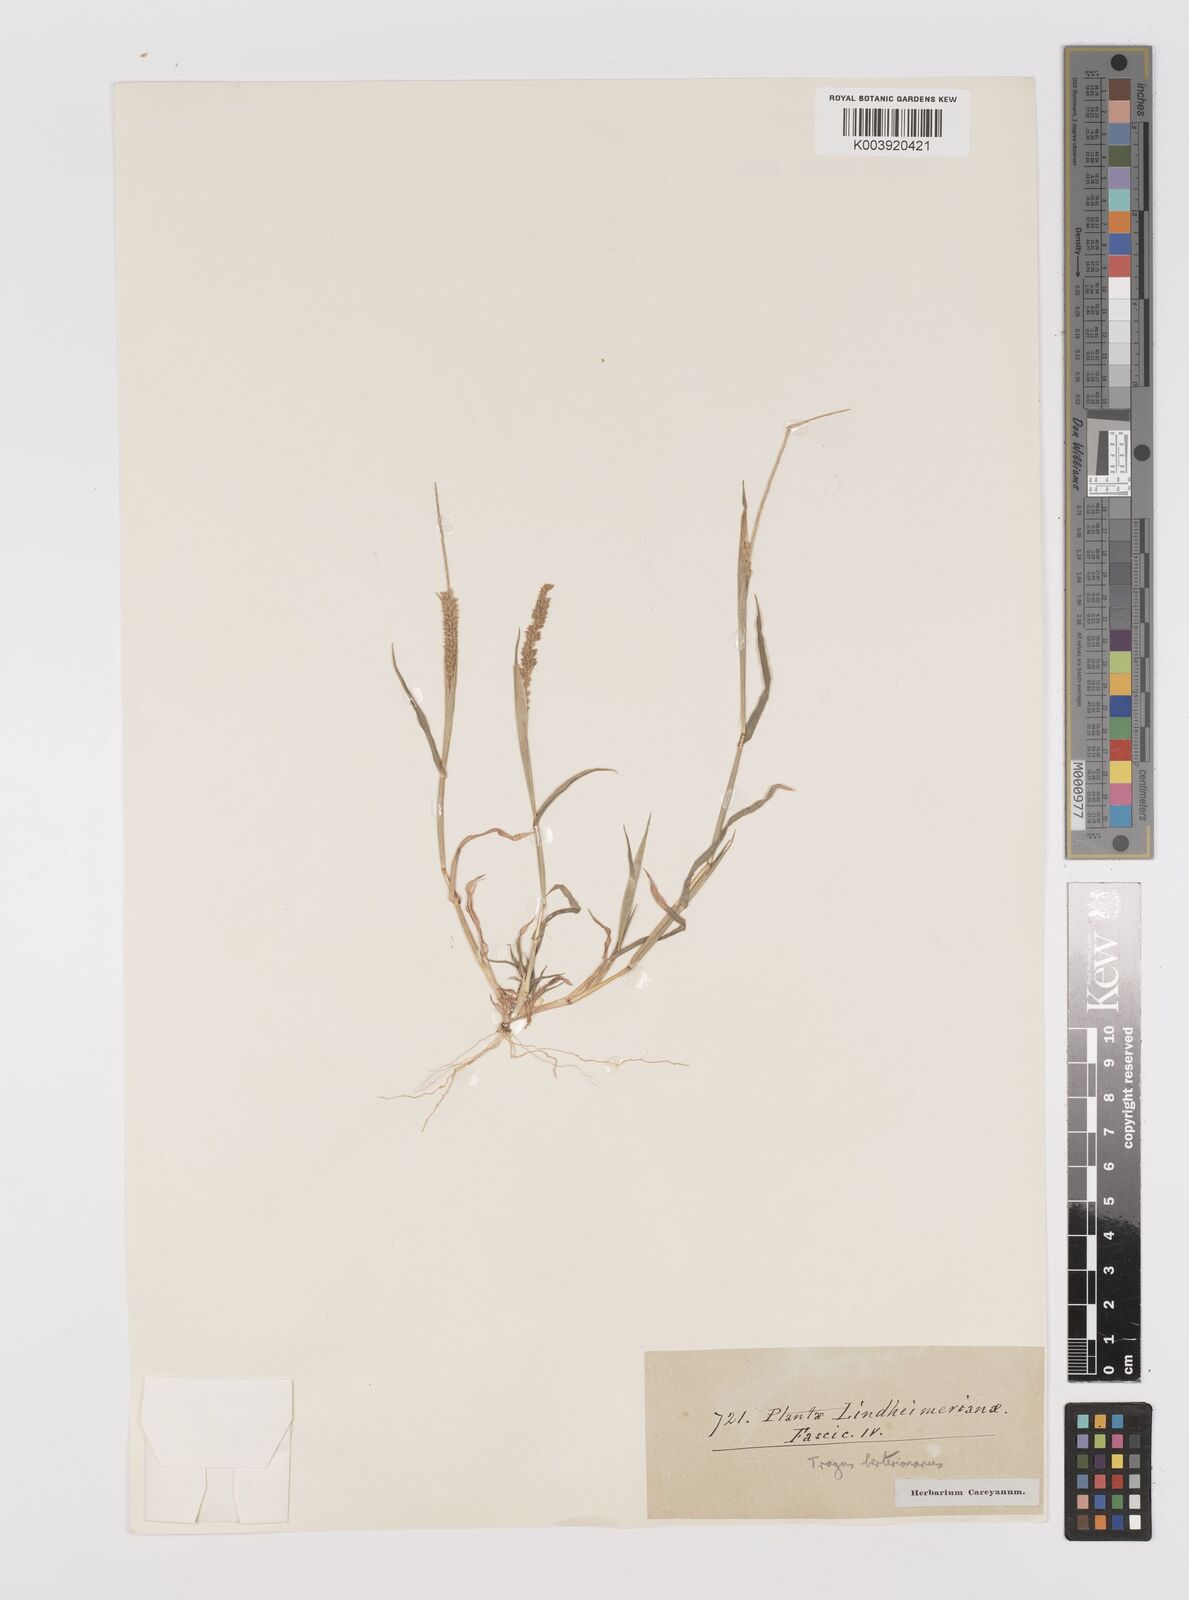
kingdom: Plantae
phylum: Tracheophyta
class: Liliopsida
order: Poales
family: Poaceae
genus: Tragus
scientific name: Tragus berteronianus
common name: African bur-grass
